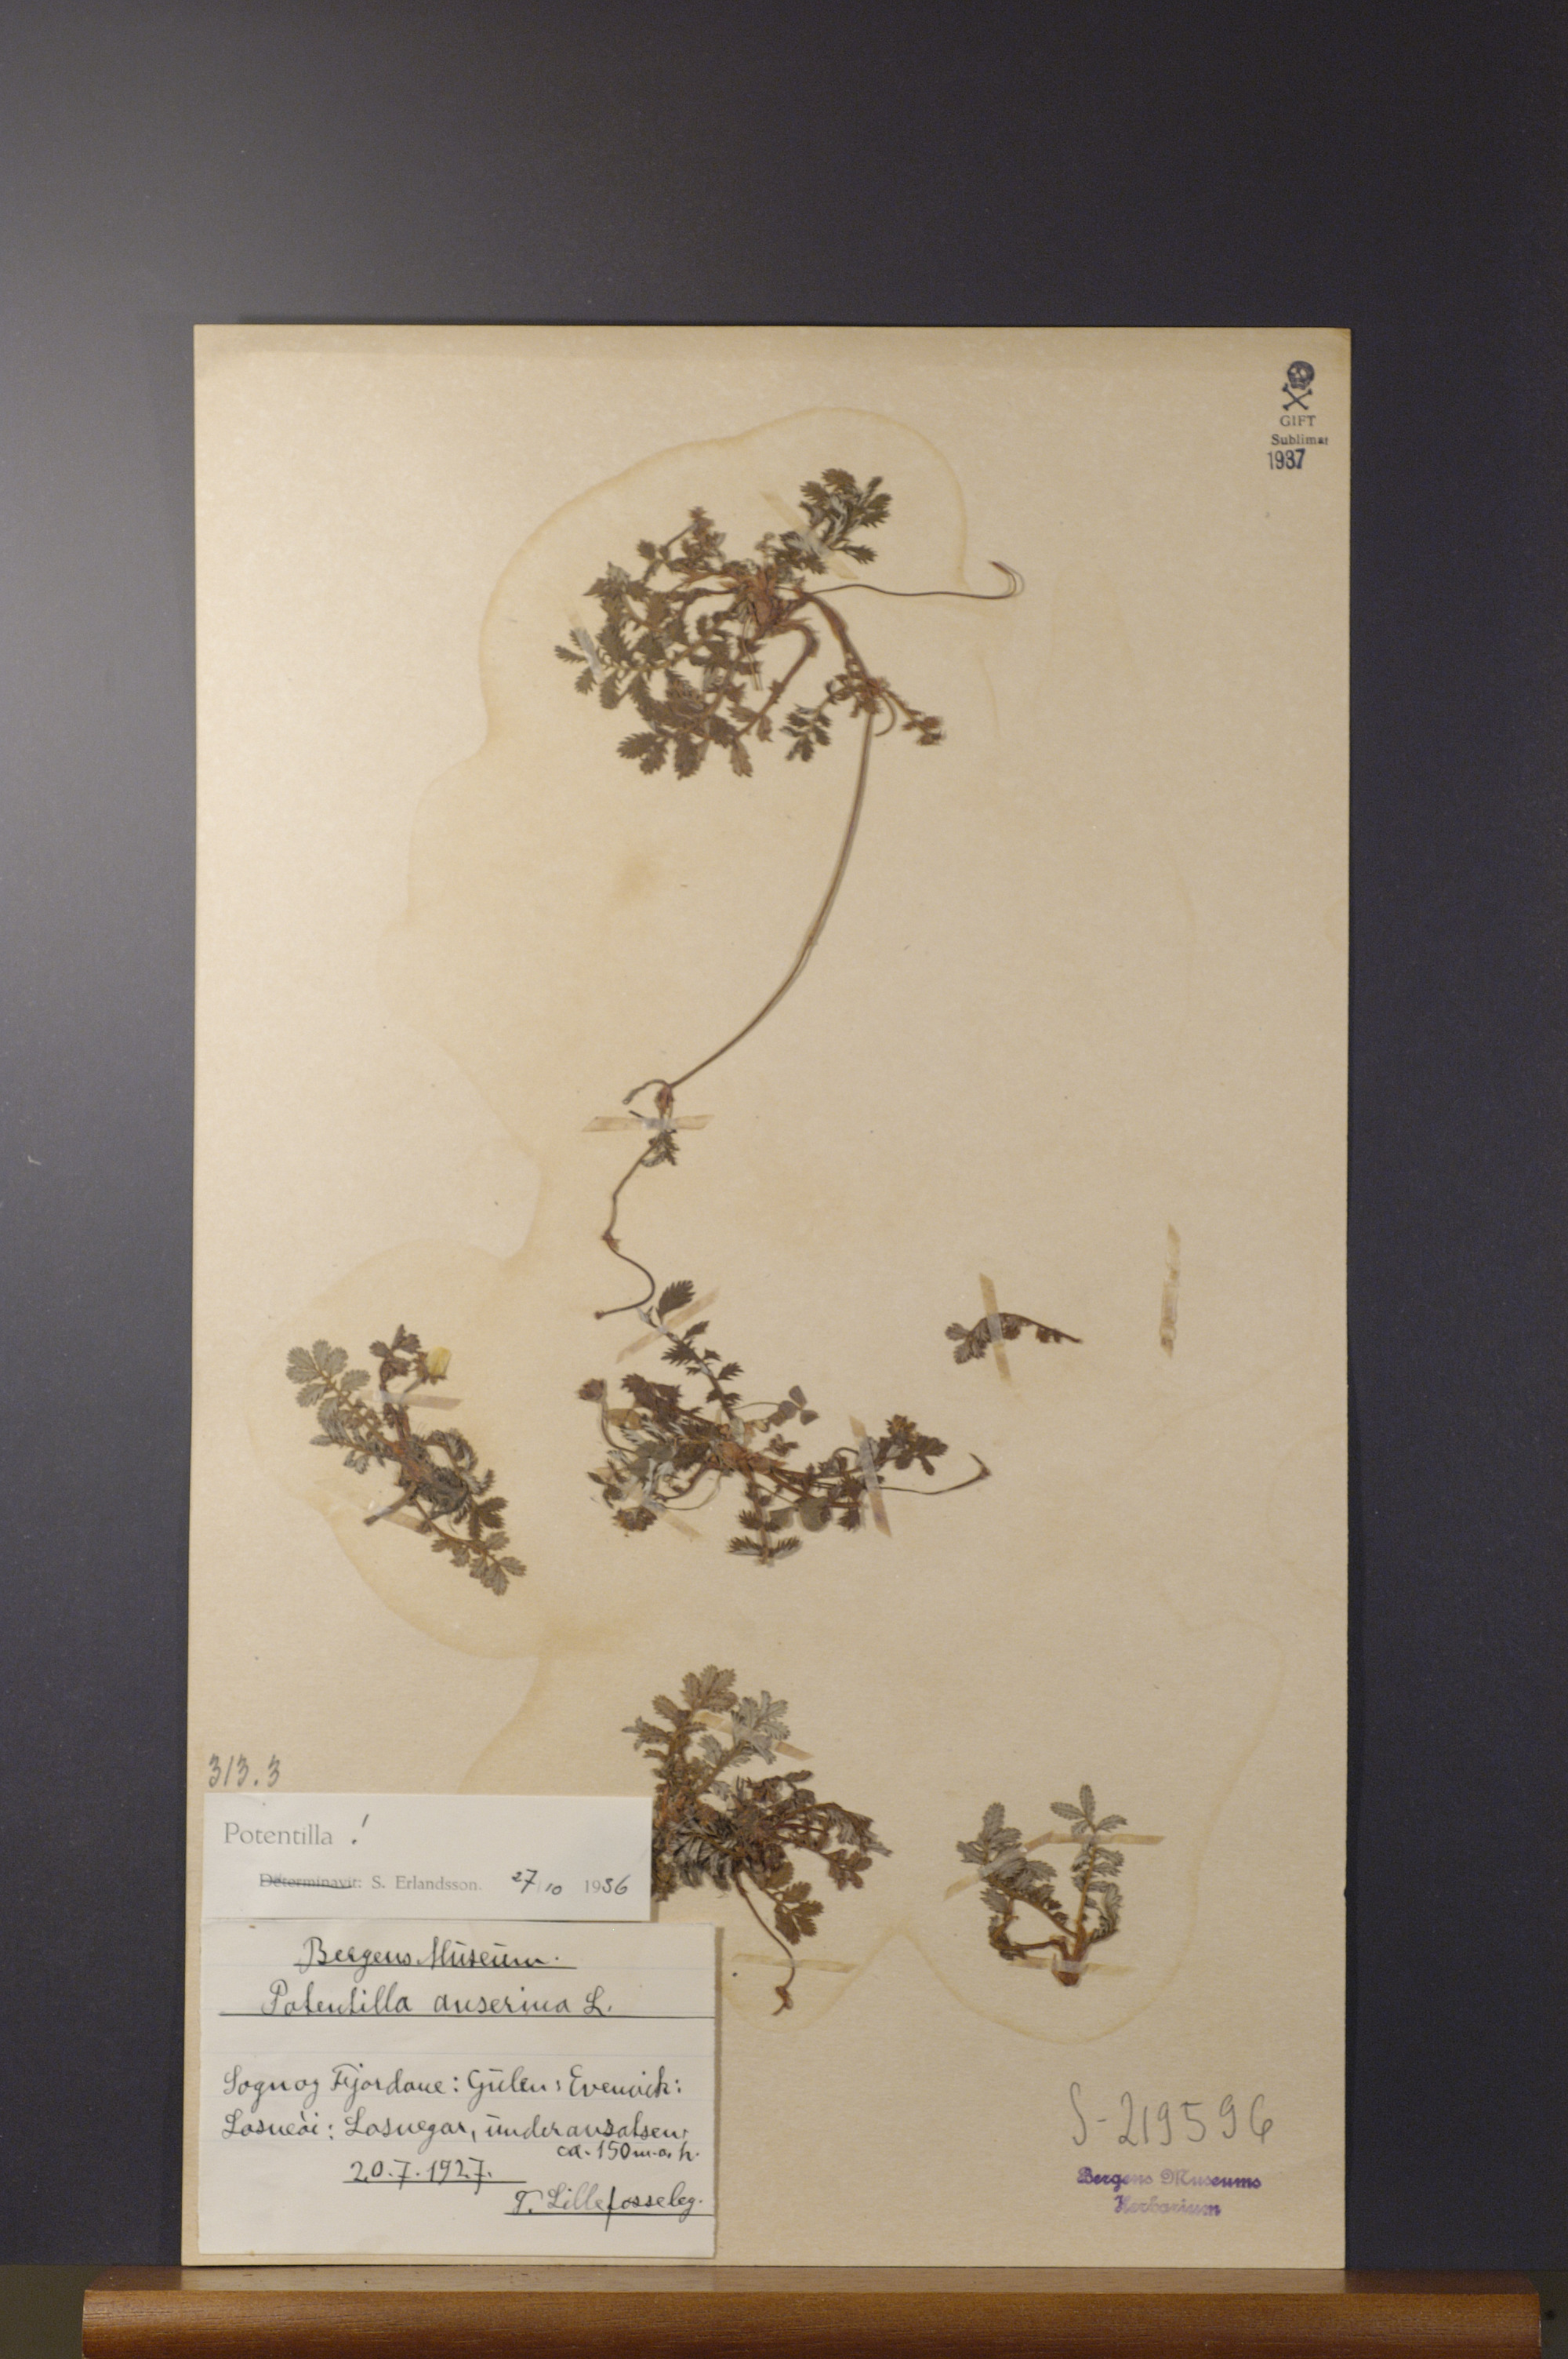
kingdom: Plantae
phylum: Tracheophyta
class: Magnoliopsida
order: Rosales
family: Rosaceae
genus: Argentina
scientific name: Argentina anserina
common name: Common silverweed
